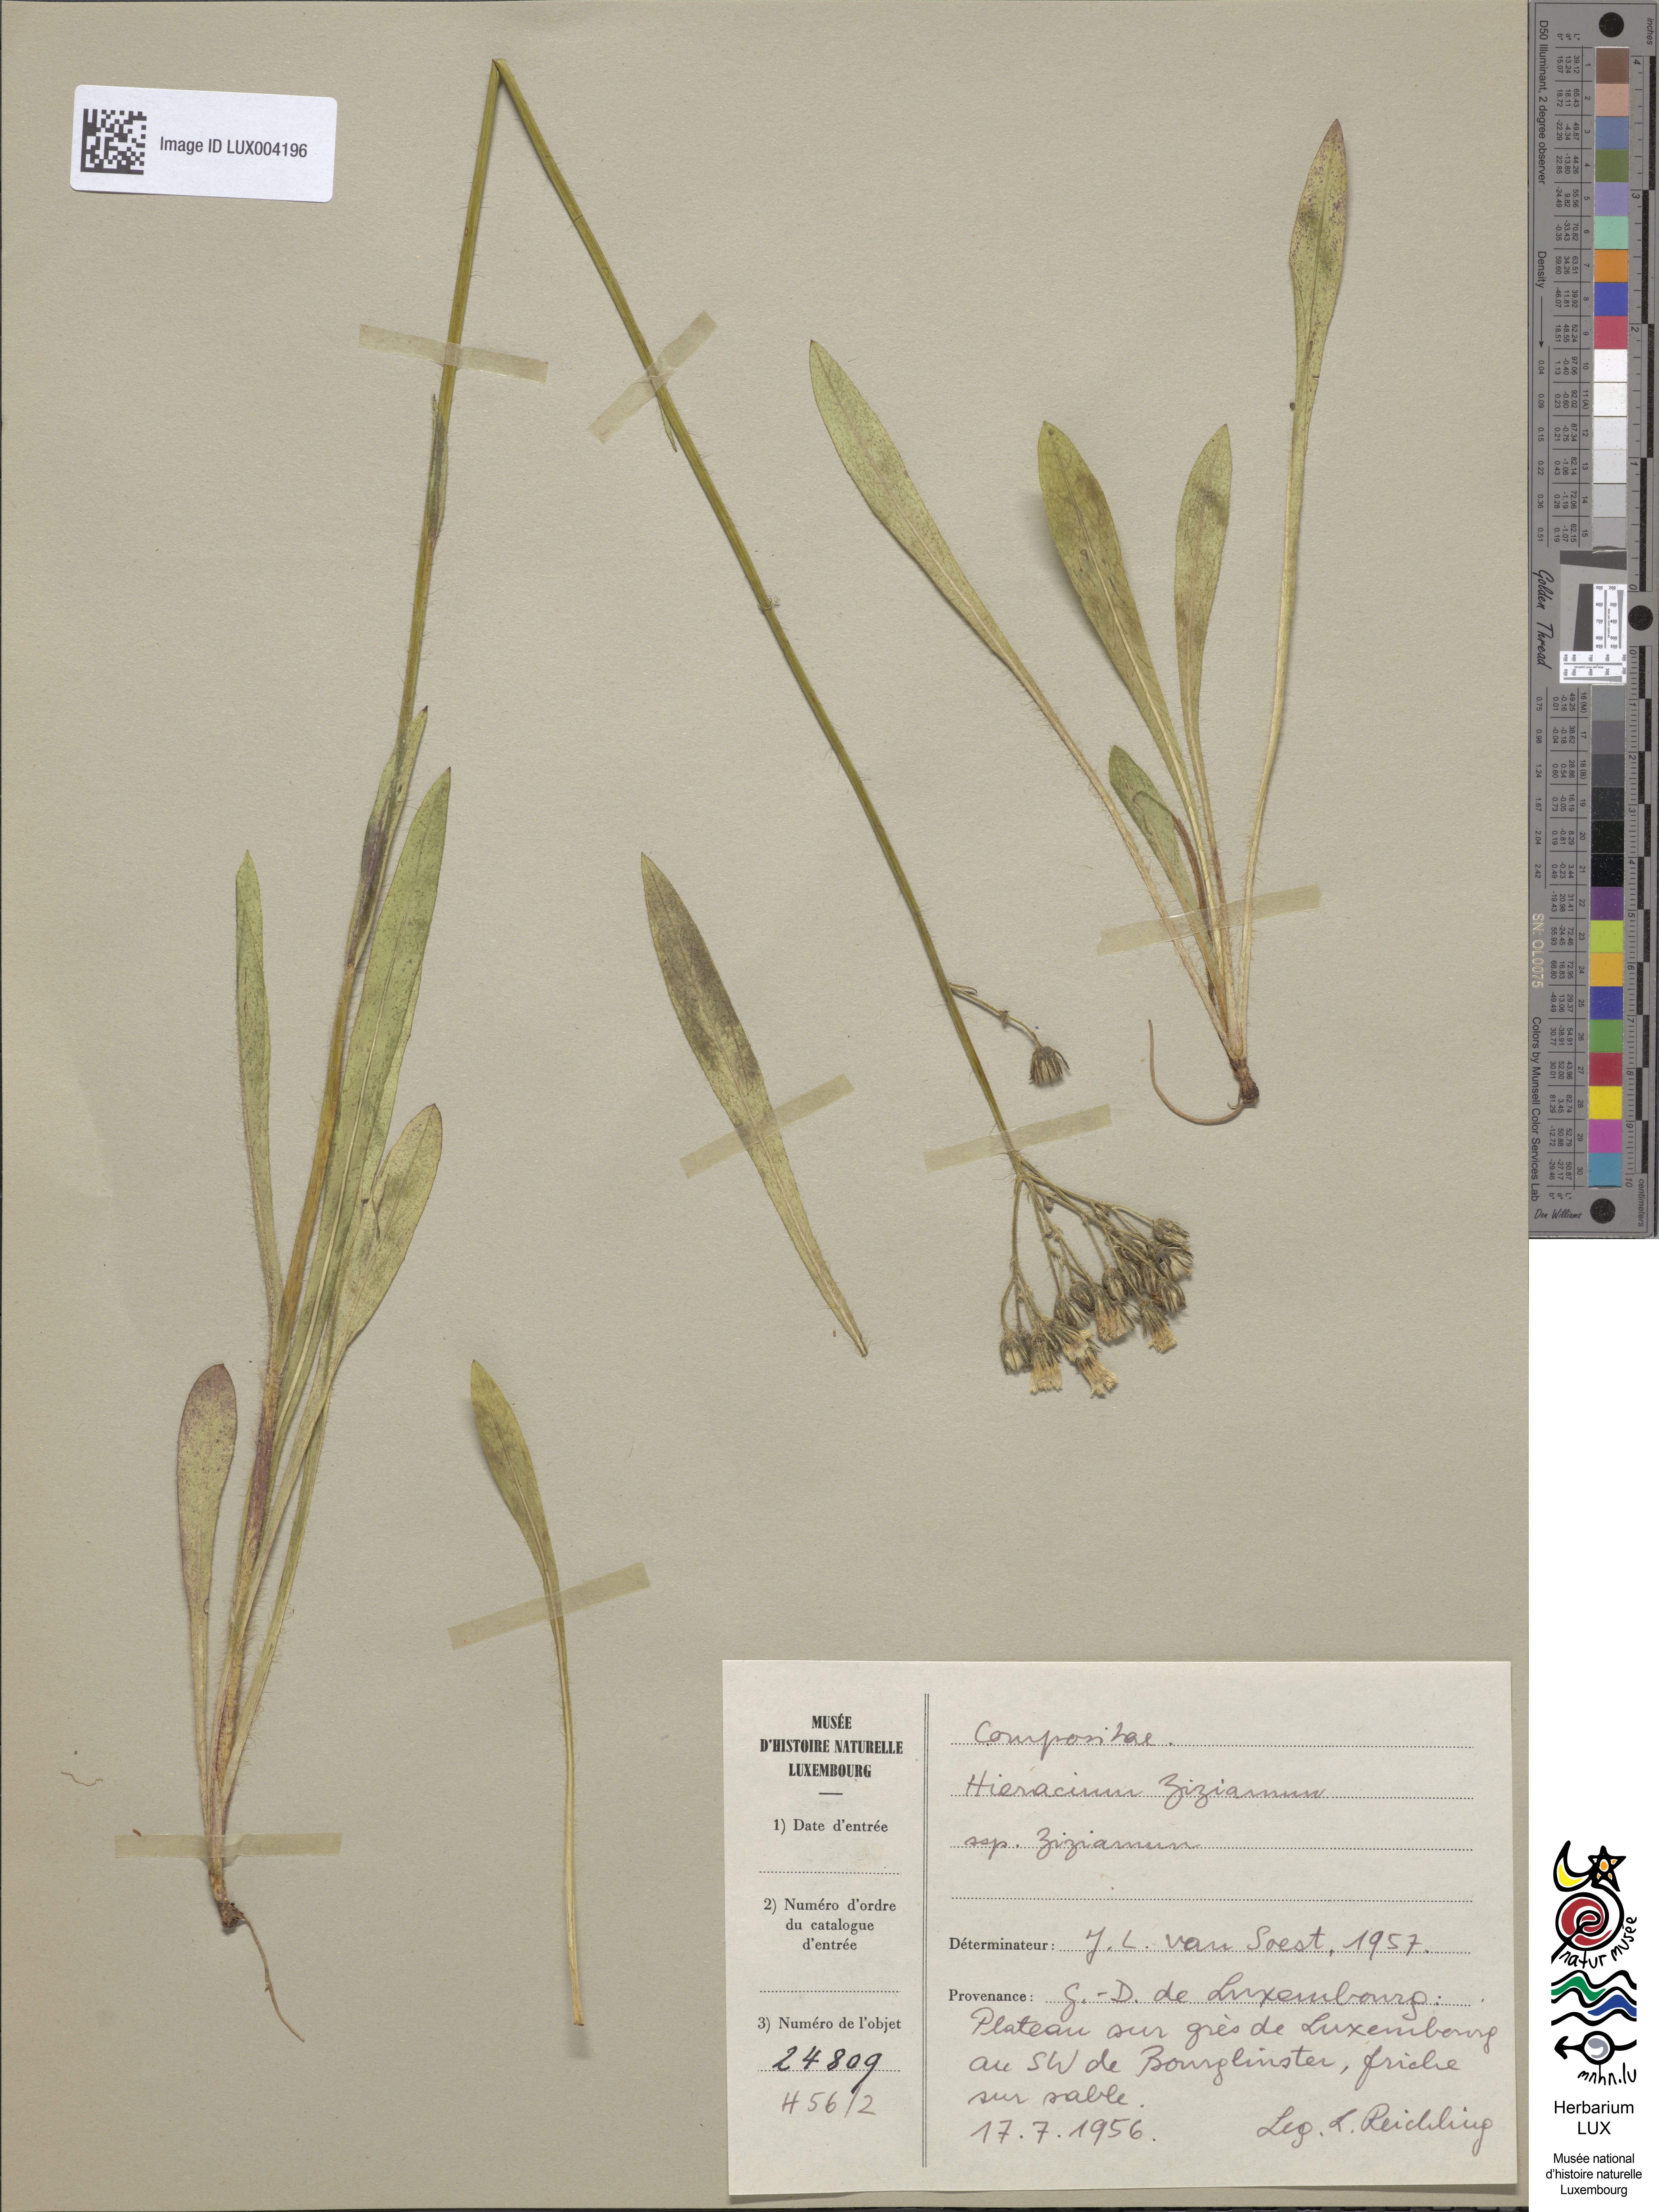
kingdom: Plantae
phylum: Tracheophyta
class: Magnoliopsida
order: Asterales
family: Asteraceae
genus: Pilosella
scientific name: Pilosella ziziana
